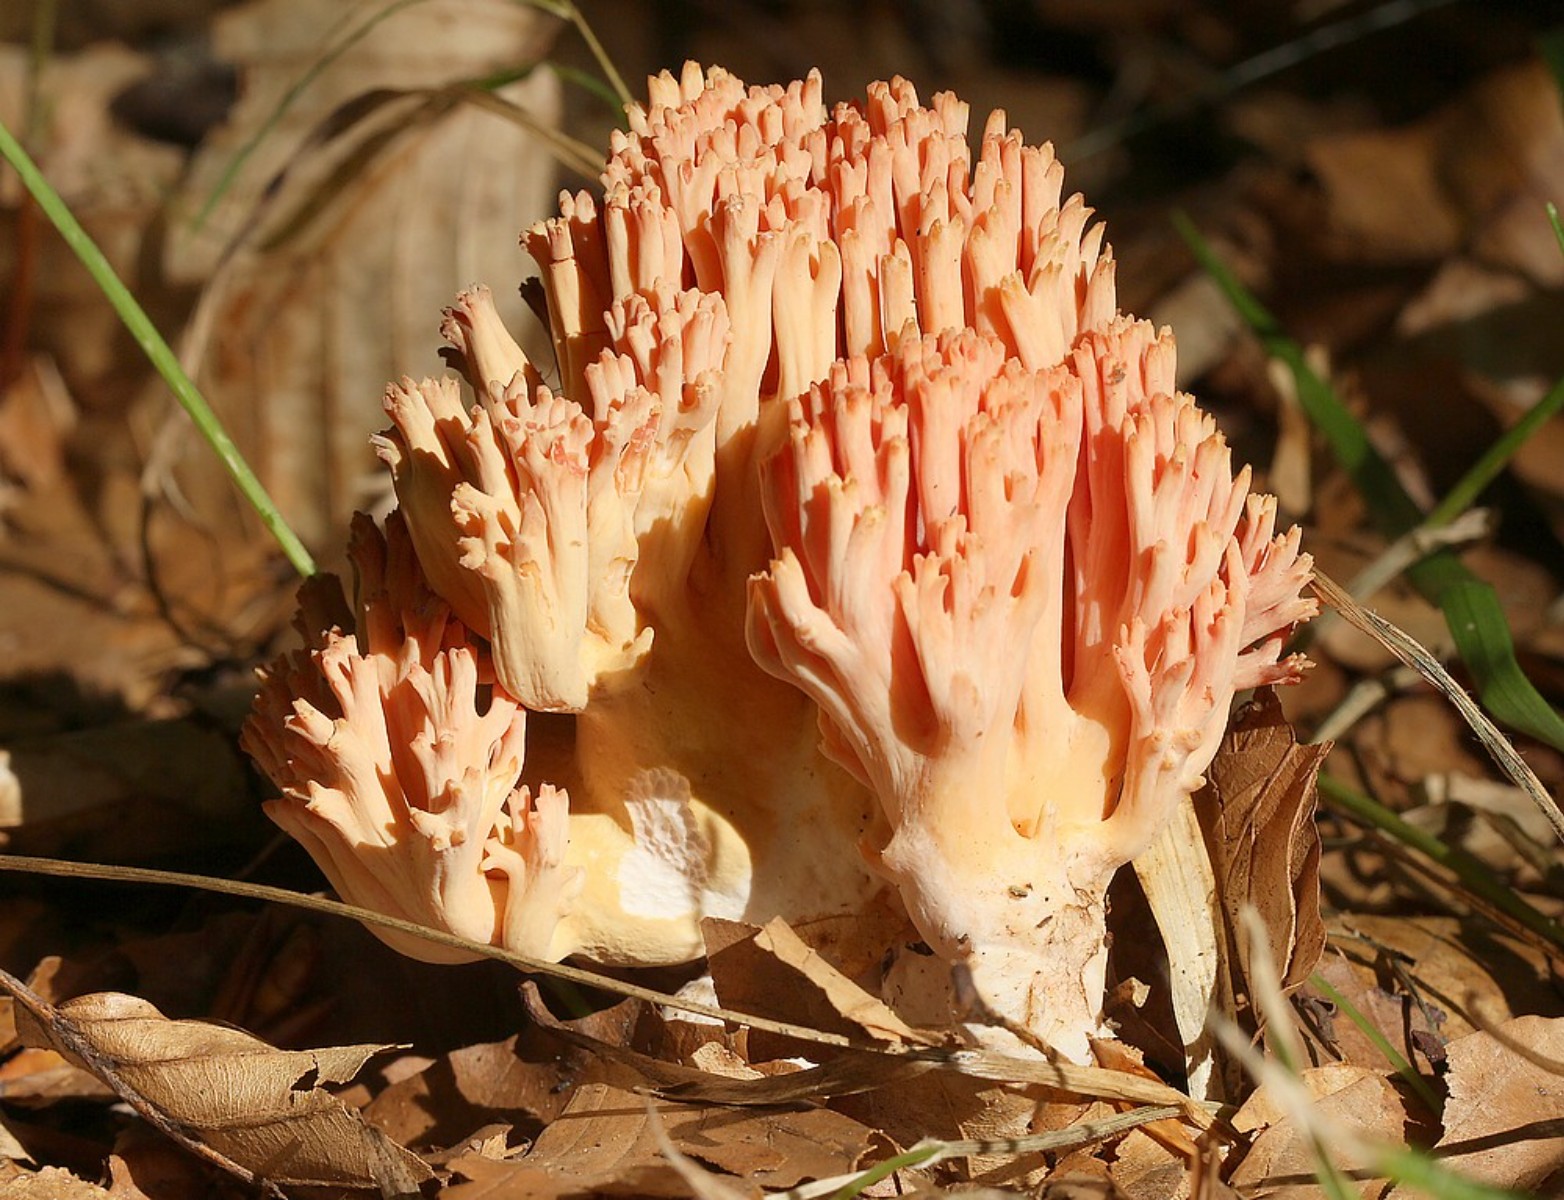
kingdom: Fungi
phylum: Basidiomycota
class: Agaricomycetes
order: Gomphales
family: Gomphaceae
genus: Ramaria
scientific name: Ramaria fagetorum
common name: abrikos-koralsvamp
